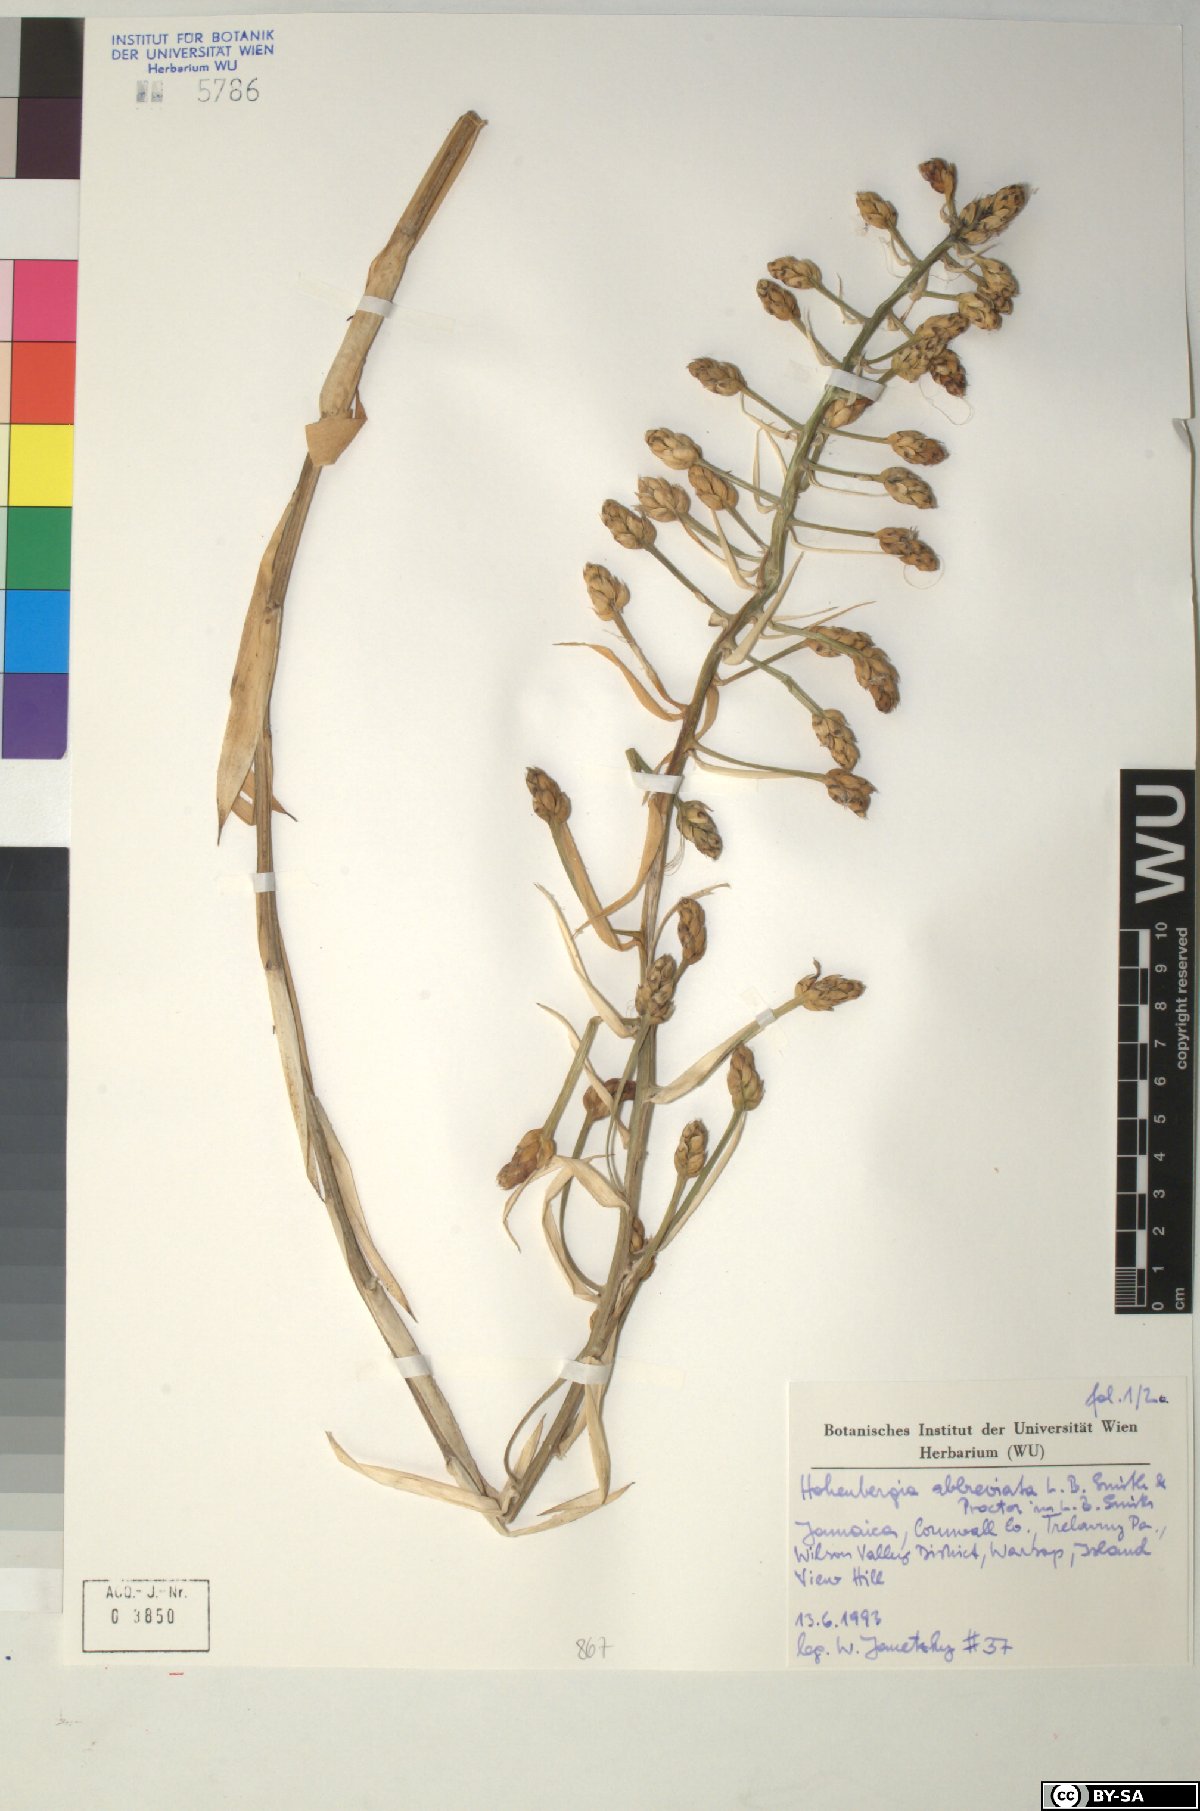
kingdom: Plantae
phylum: Tracheophyta
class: Liliopsida
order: Poales
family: Bromeliaceae
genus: Wittmackia
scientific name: Wittmackia abbreviata
